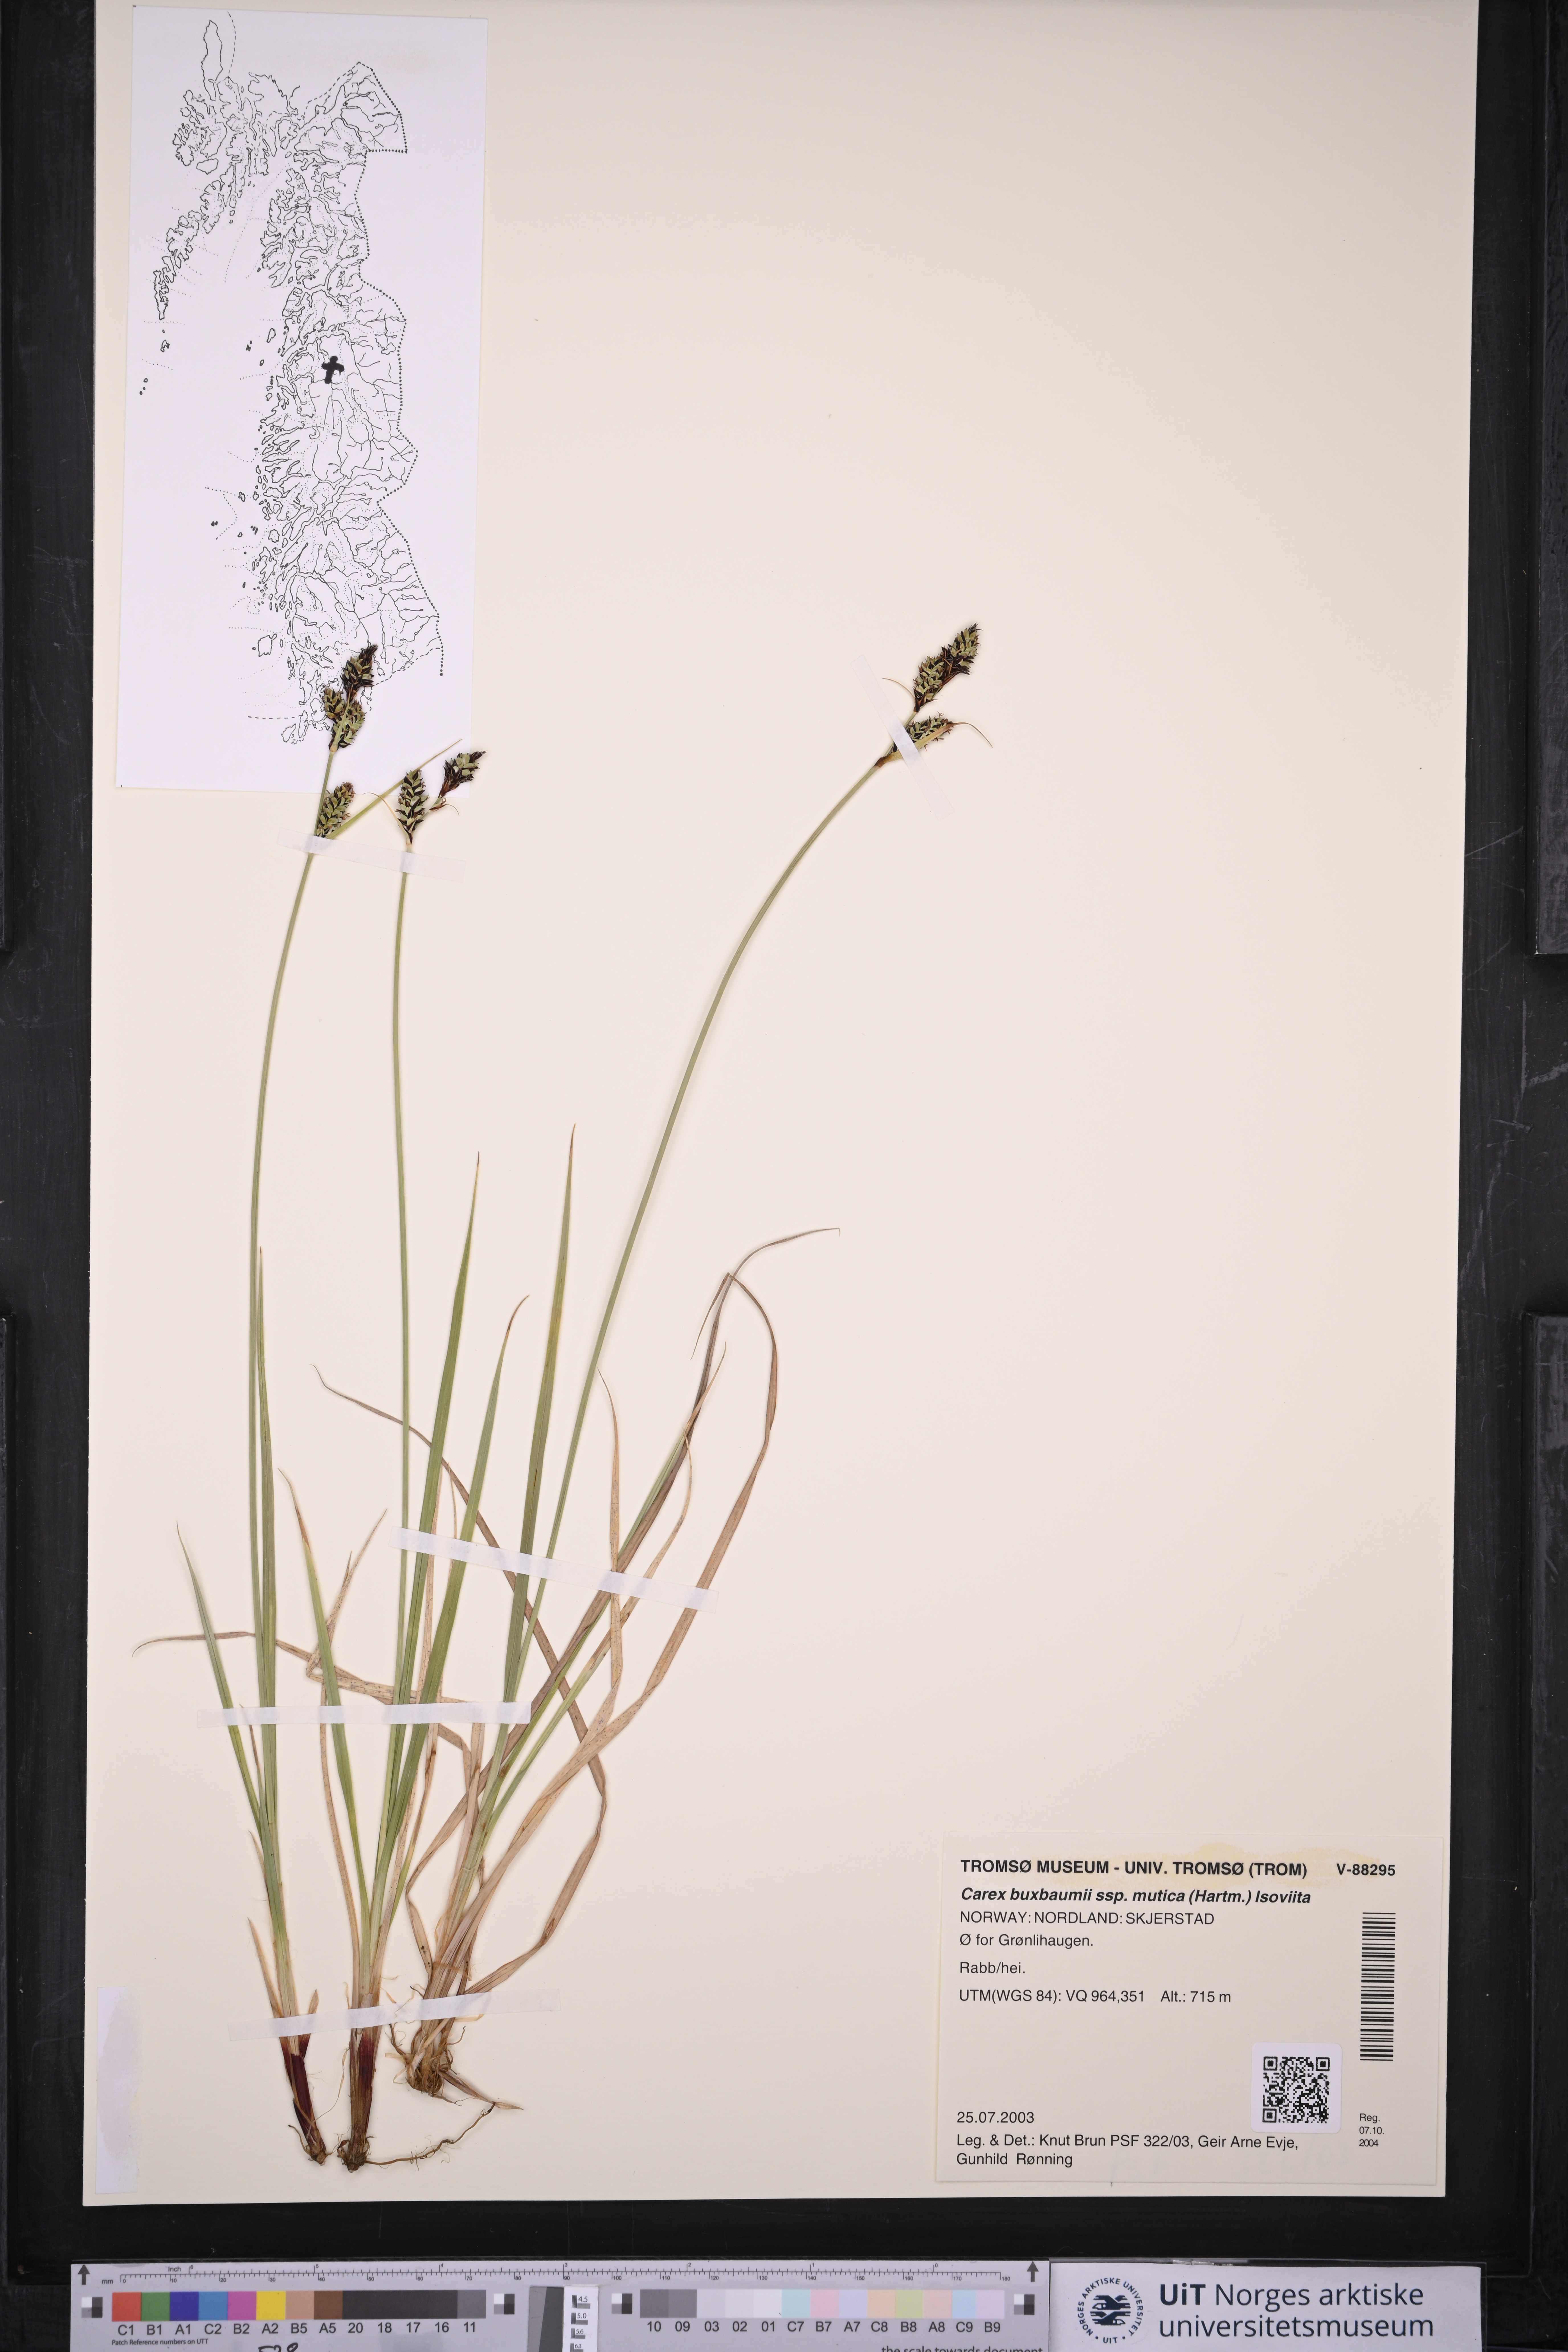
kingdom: Plantae
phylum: Tracheophyta
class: Liliopsida
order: Poales
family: Cyperaceae
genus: Carex
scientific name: Carex adelostoma
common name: Circumpolar sedge
